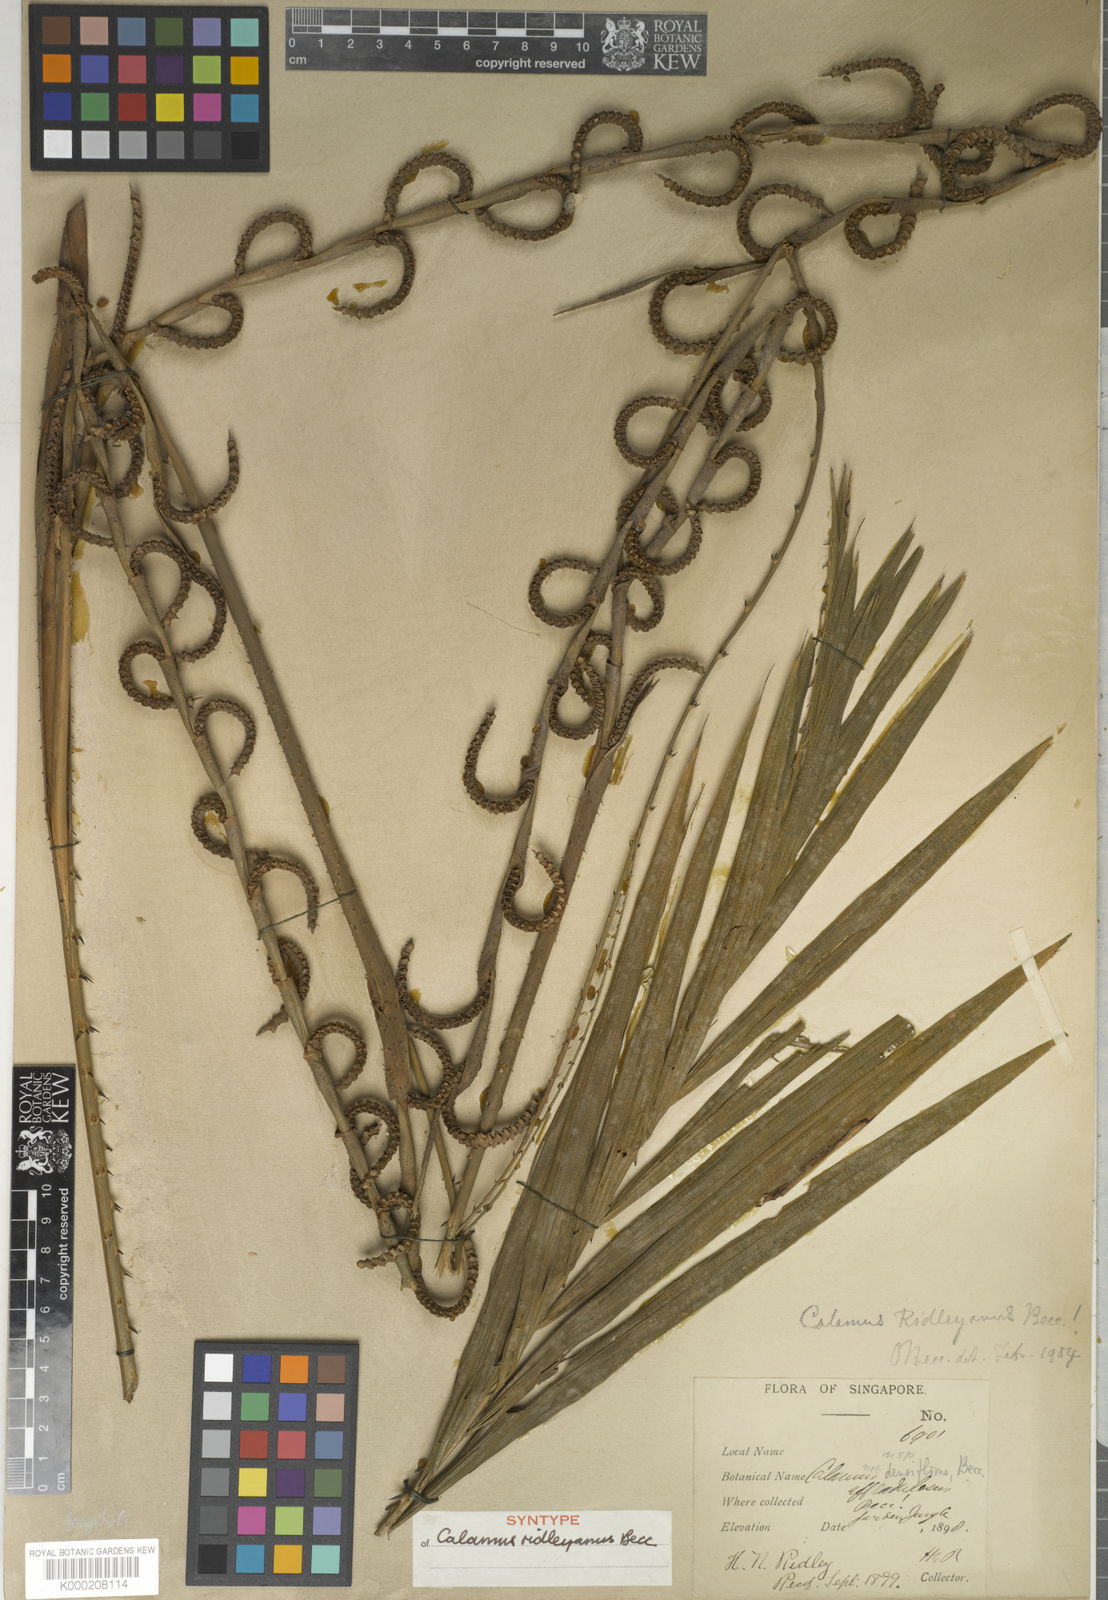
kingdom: Plantae
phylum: Tracheophyta
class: Liliopsida
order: Arecales
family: Arecaceae
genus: Calamus
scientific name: Calamus ridleyanus
